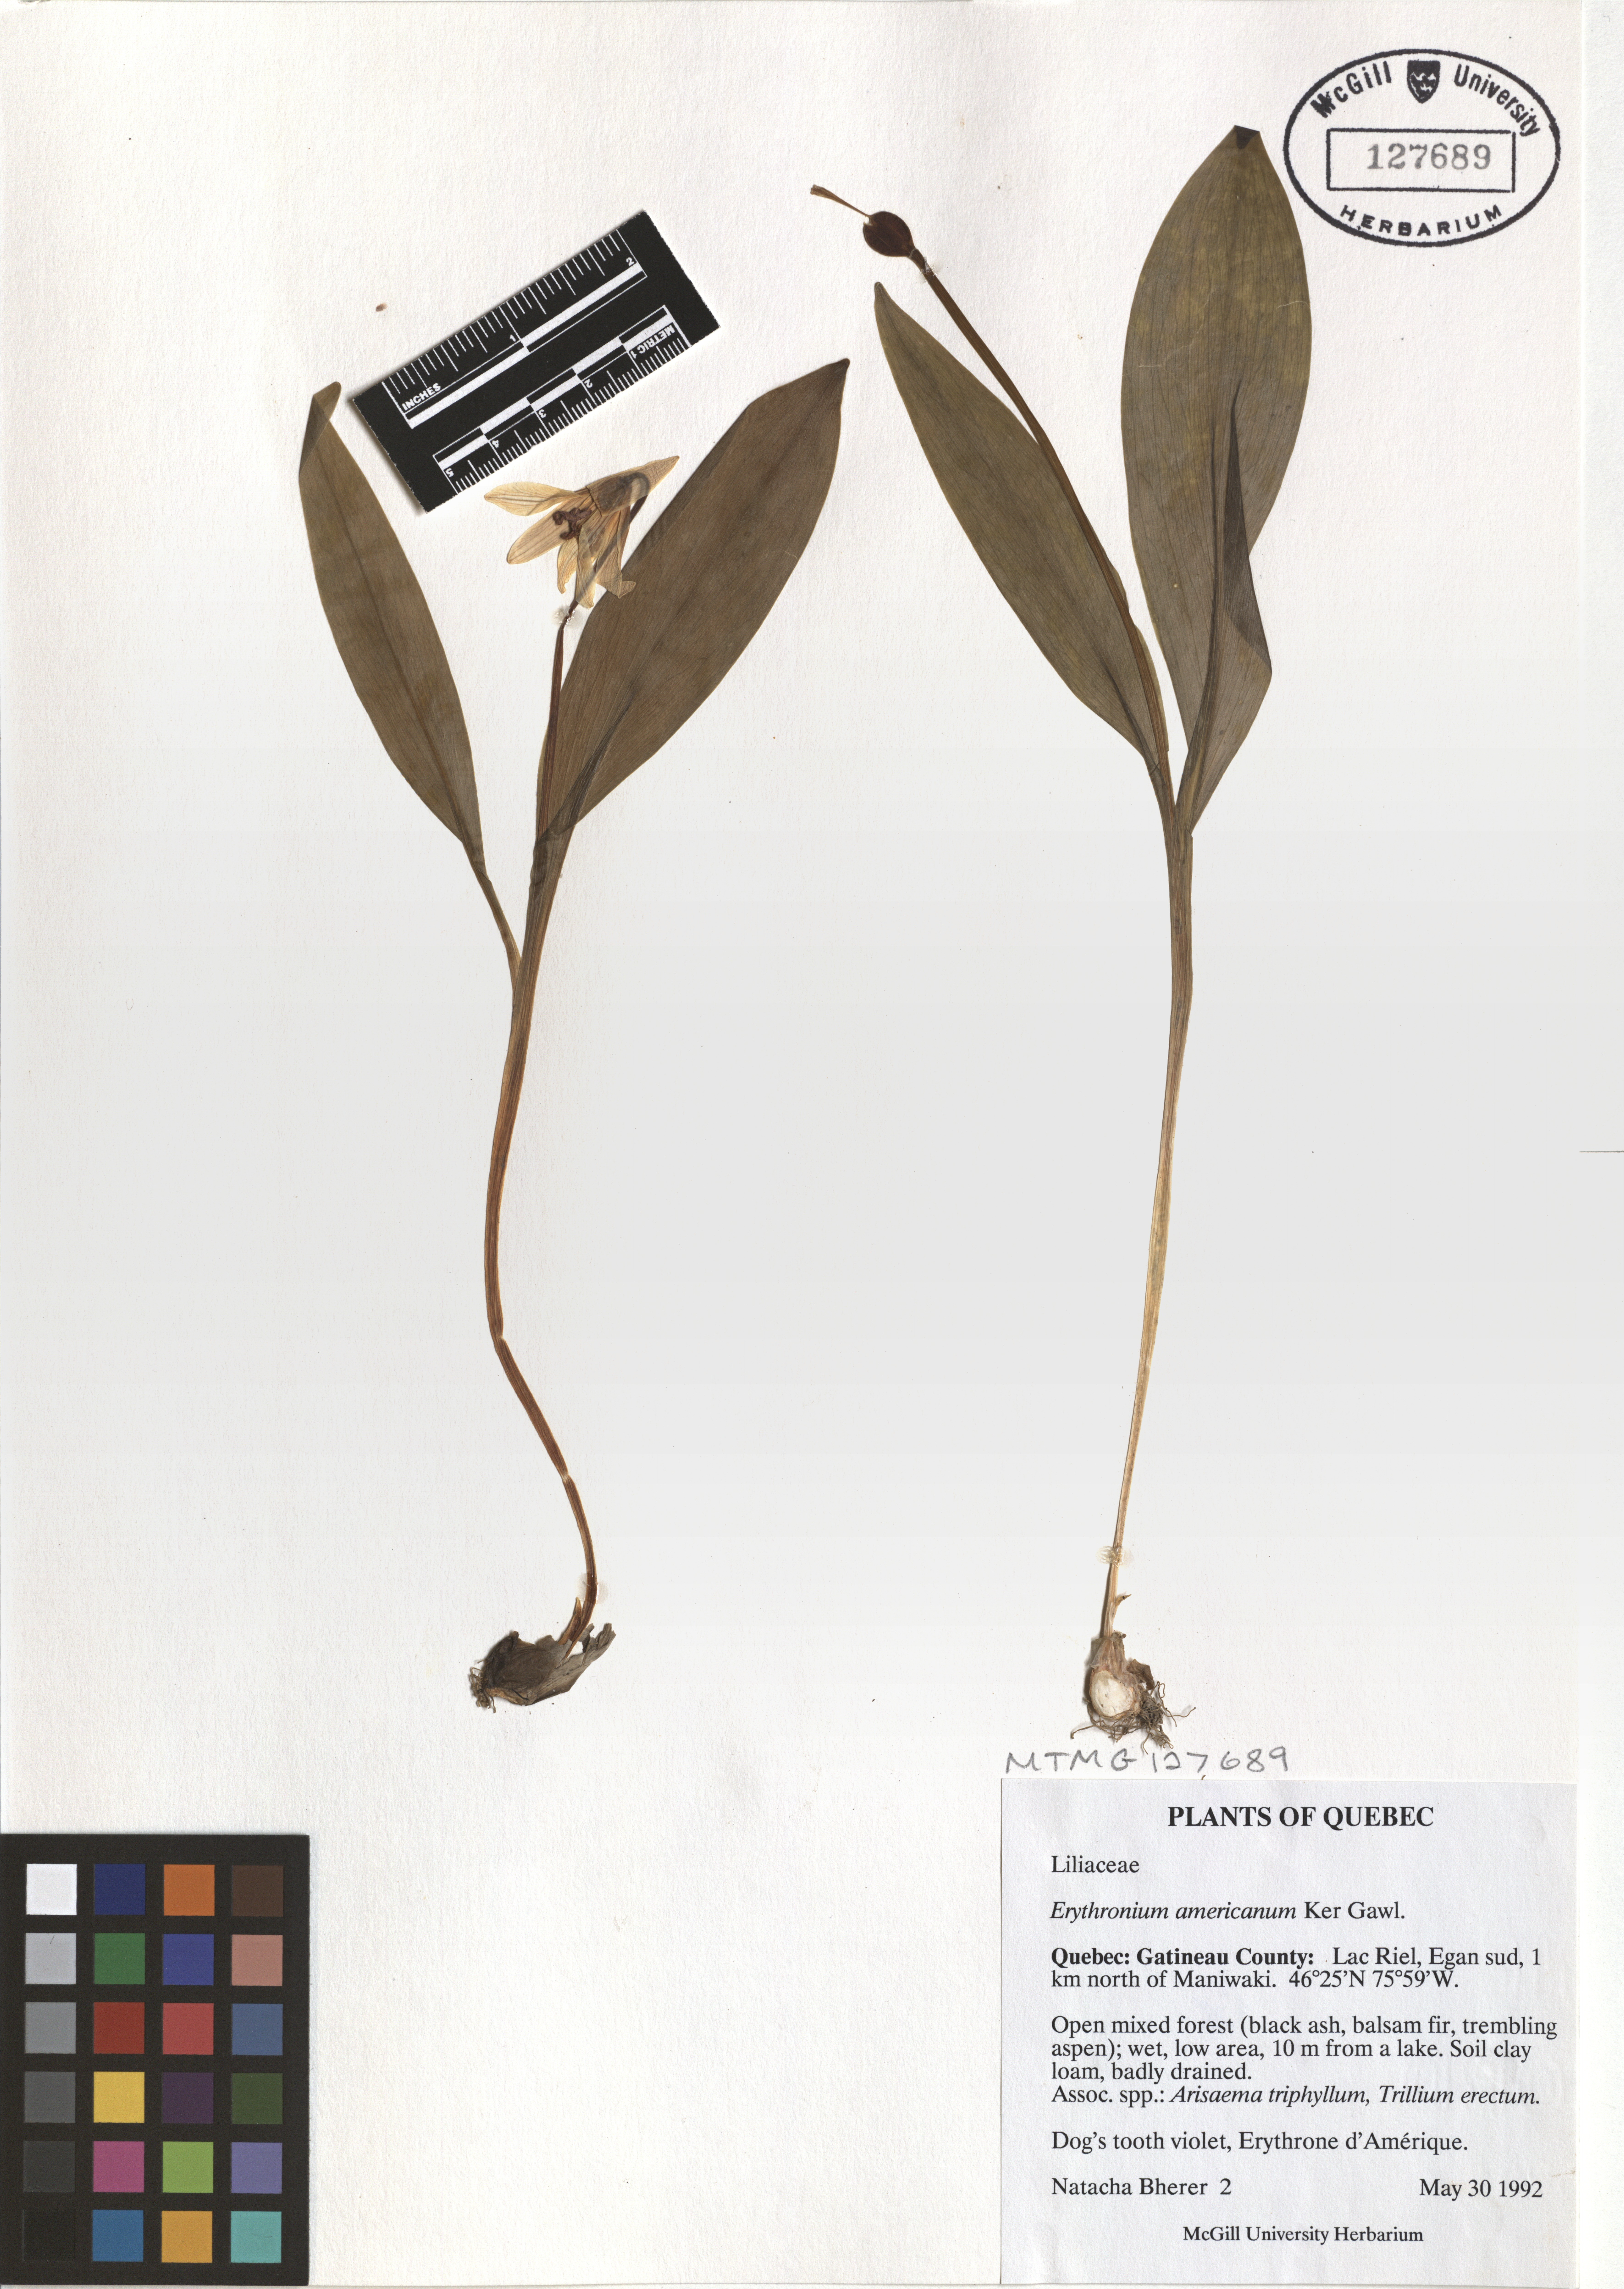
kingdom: Plantae
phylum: Tracheophyta
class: Liliopsida
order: Liliales
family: Liliaceae
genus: Erythronium
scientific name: Erythronium americanum
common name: Yellow adder's-tongue
